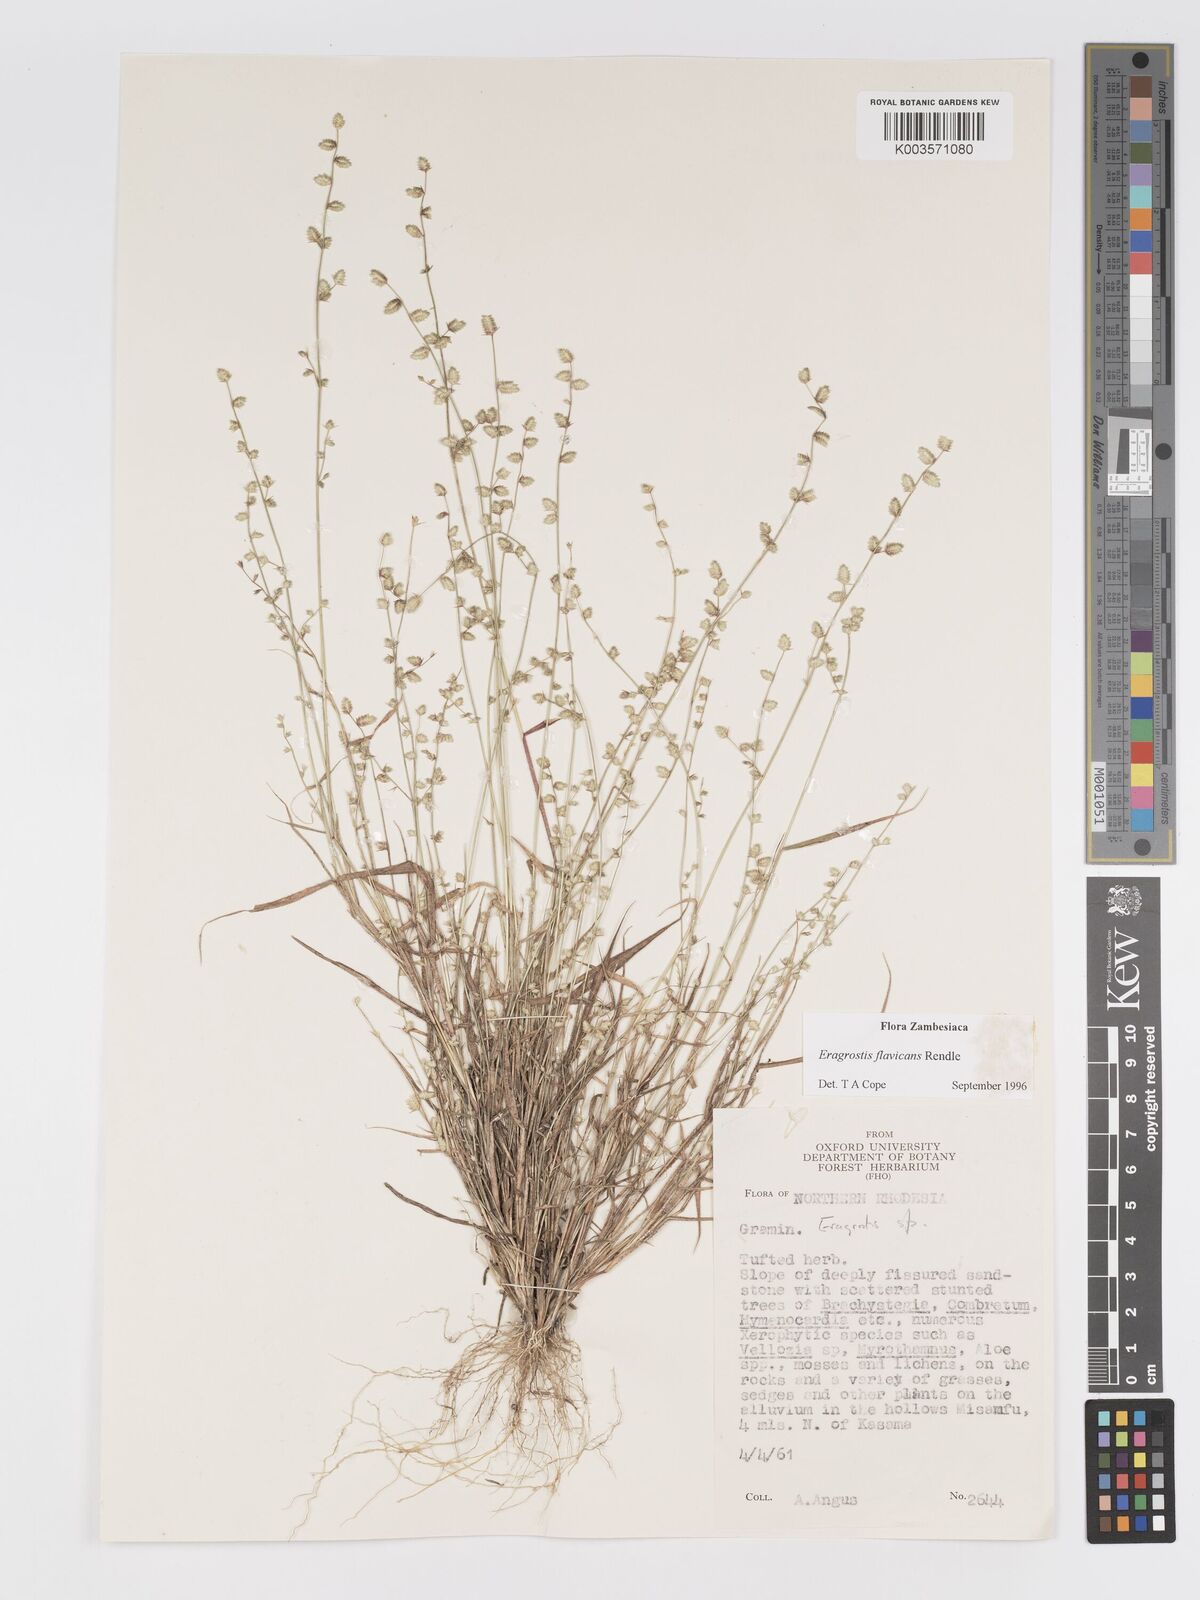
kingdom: Plantae
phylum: Tracheophyta
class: Liliopsida
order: Poales
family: Poaceae
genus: Eragrostis
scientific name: Eragrostis flavicans
